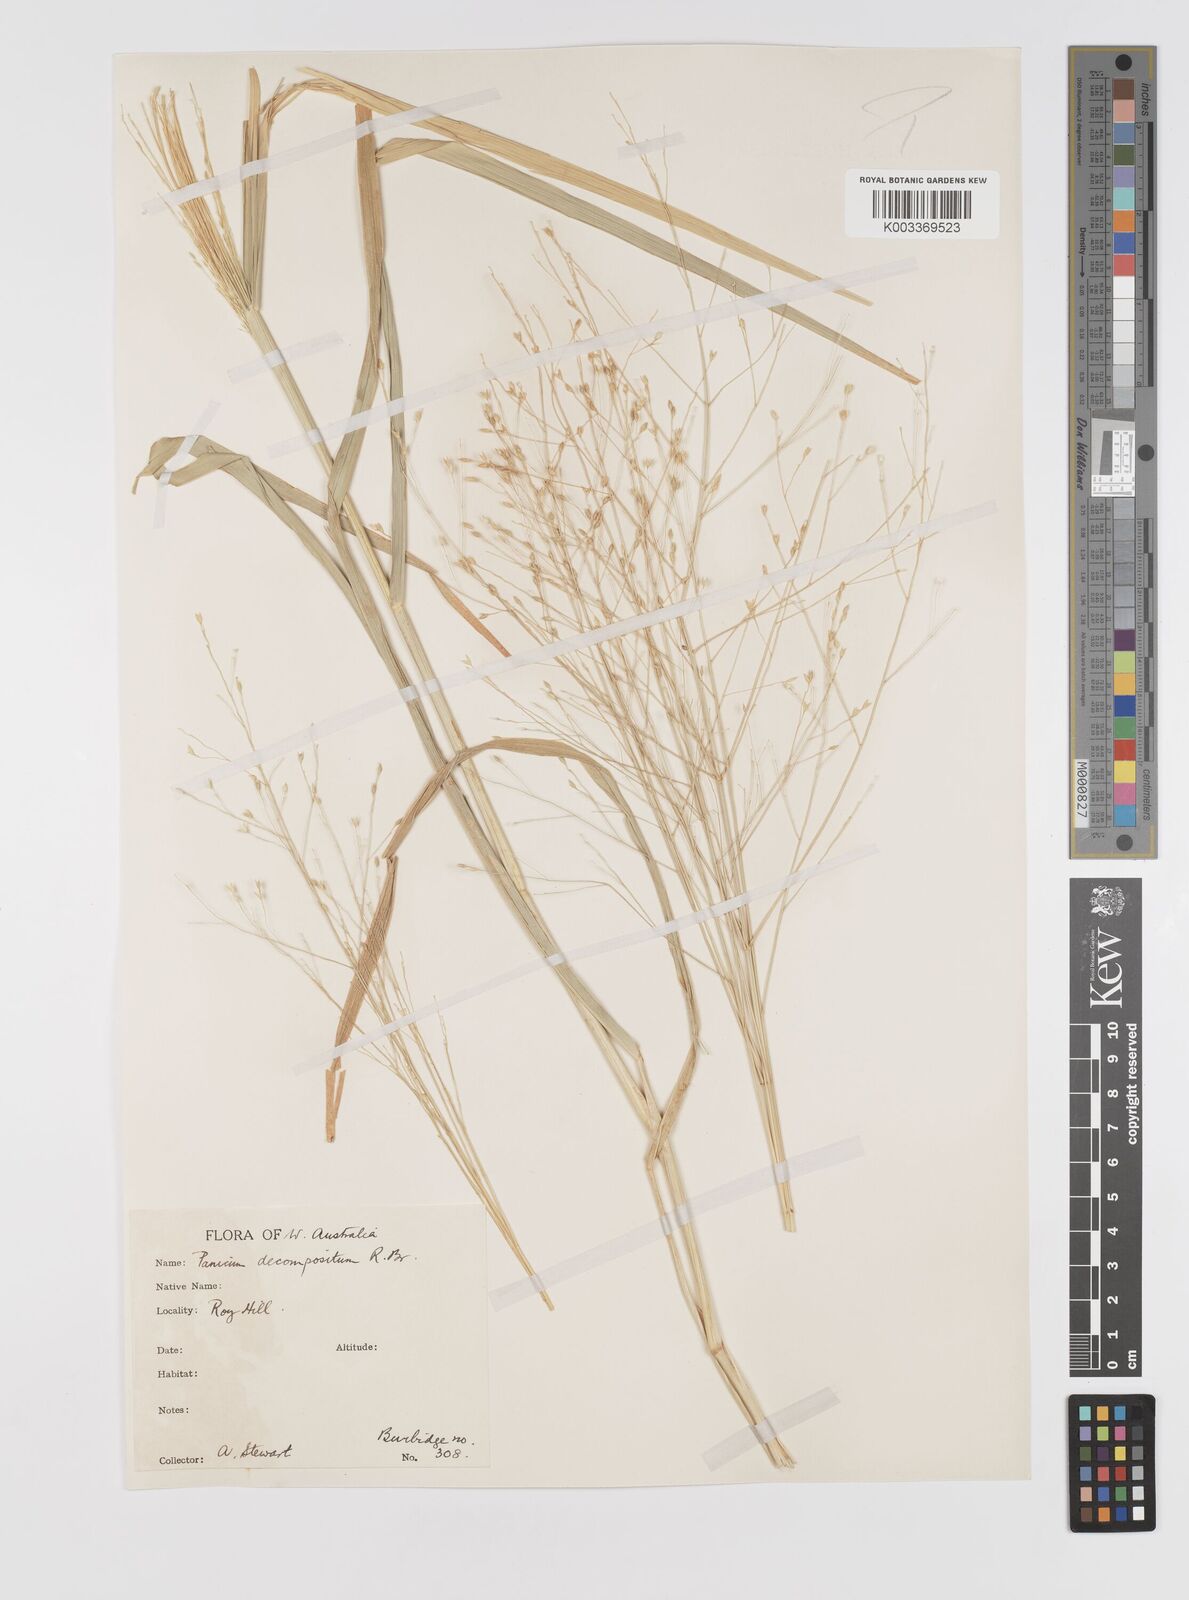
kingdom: Plantae
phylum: Tracheophyta
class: Liliopsida
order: Poales
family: Poaceae
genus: Panicum
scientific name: Panicum decompositum
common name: Australian millet
